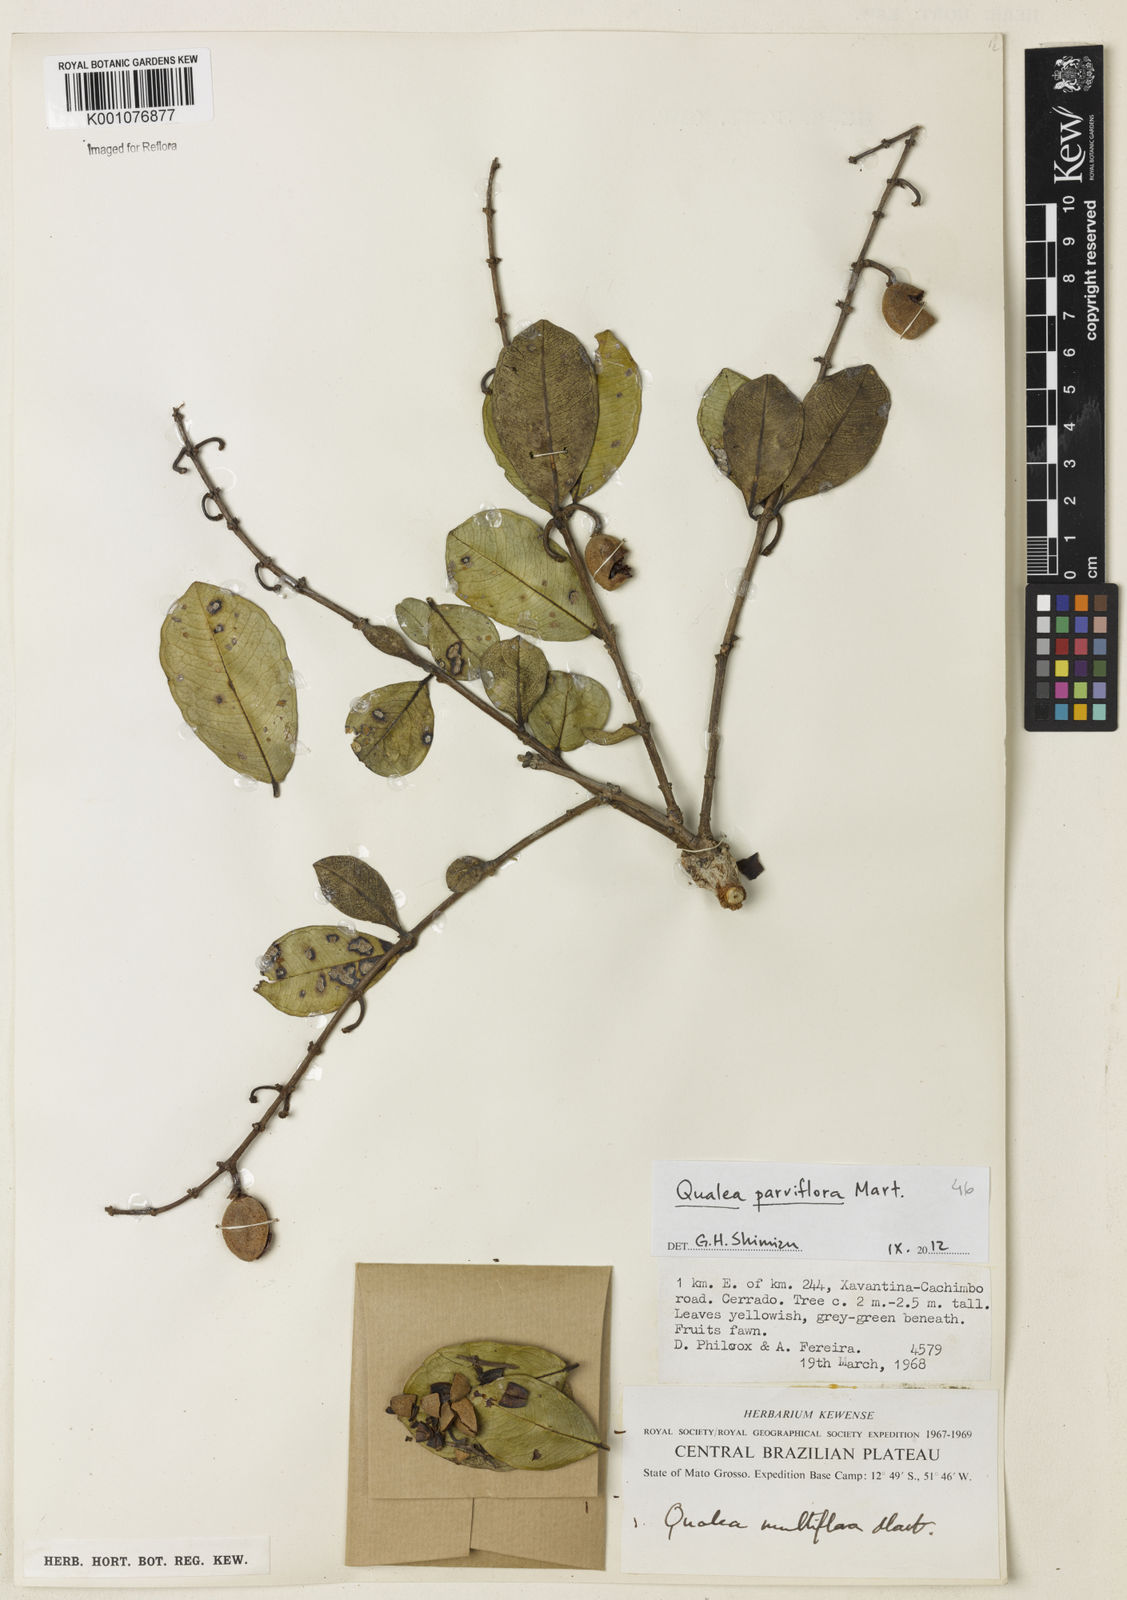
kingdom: Plantae
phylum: Tracheophyta
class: Magnoliopsida
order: Myrtales
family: Vochysiaceae
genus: Qualea
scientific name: Qualea parviflora
